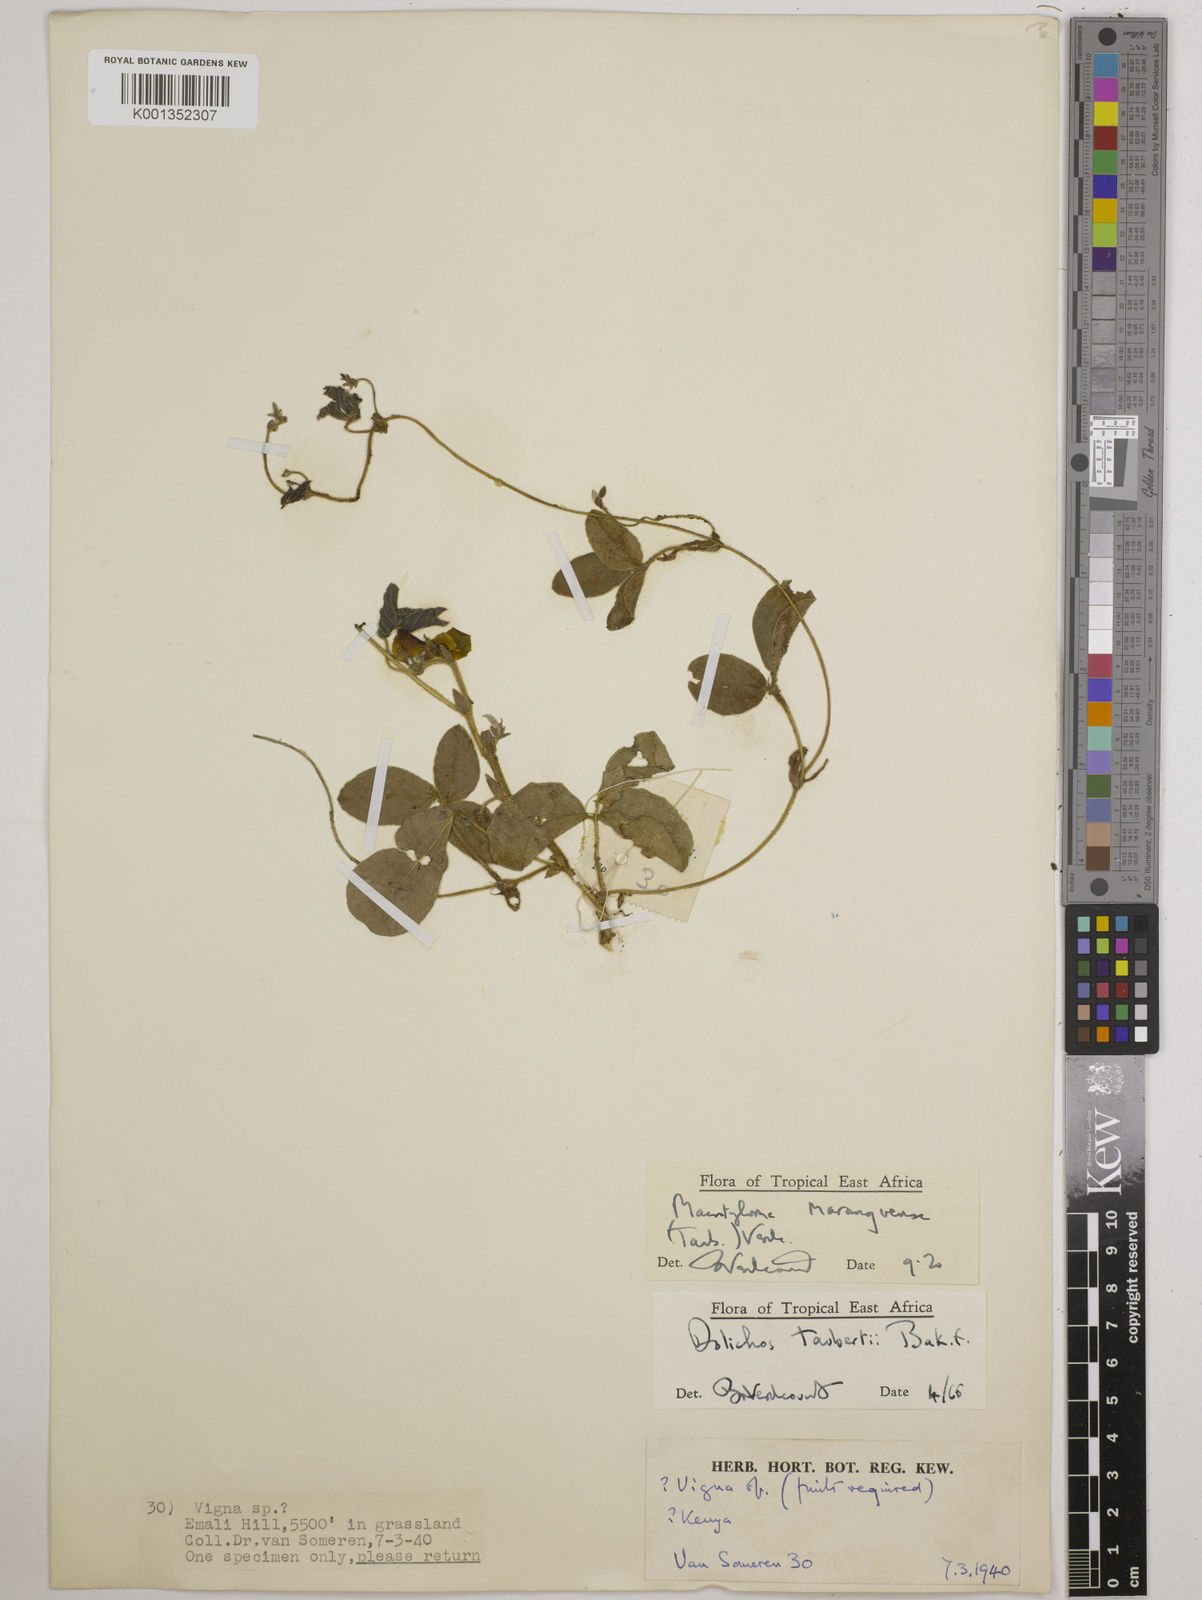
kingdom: Plantae
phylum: Tracheophyta
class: Magnoliopsida
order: Fabales
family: Fabaceae
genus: Macrotyloma
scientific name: Macrotyloma maranguense
